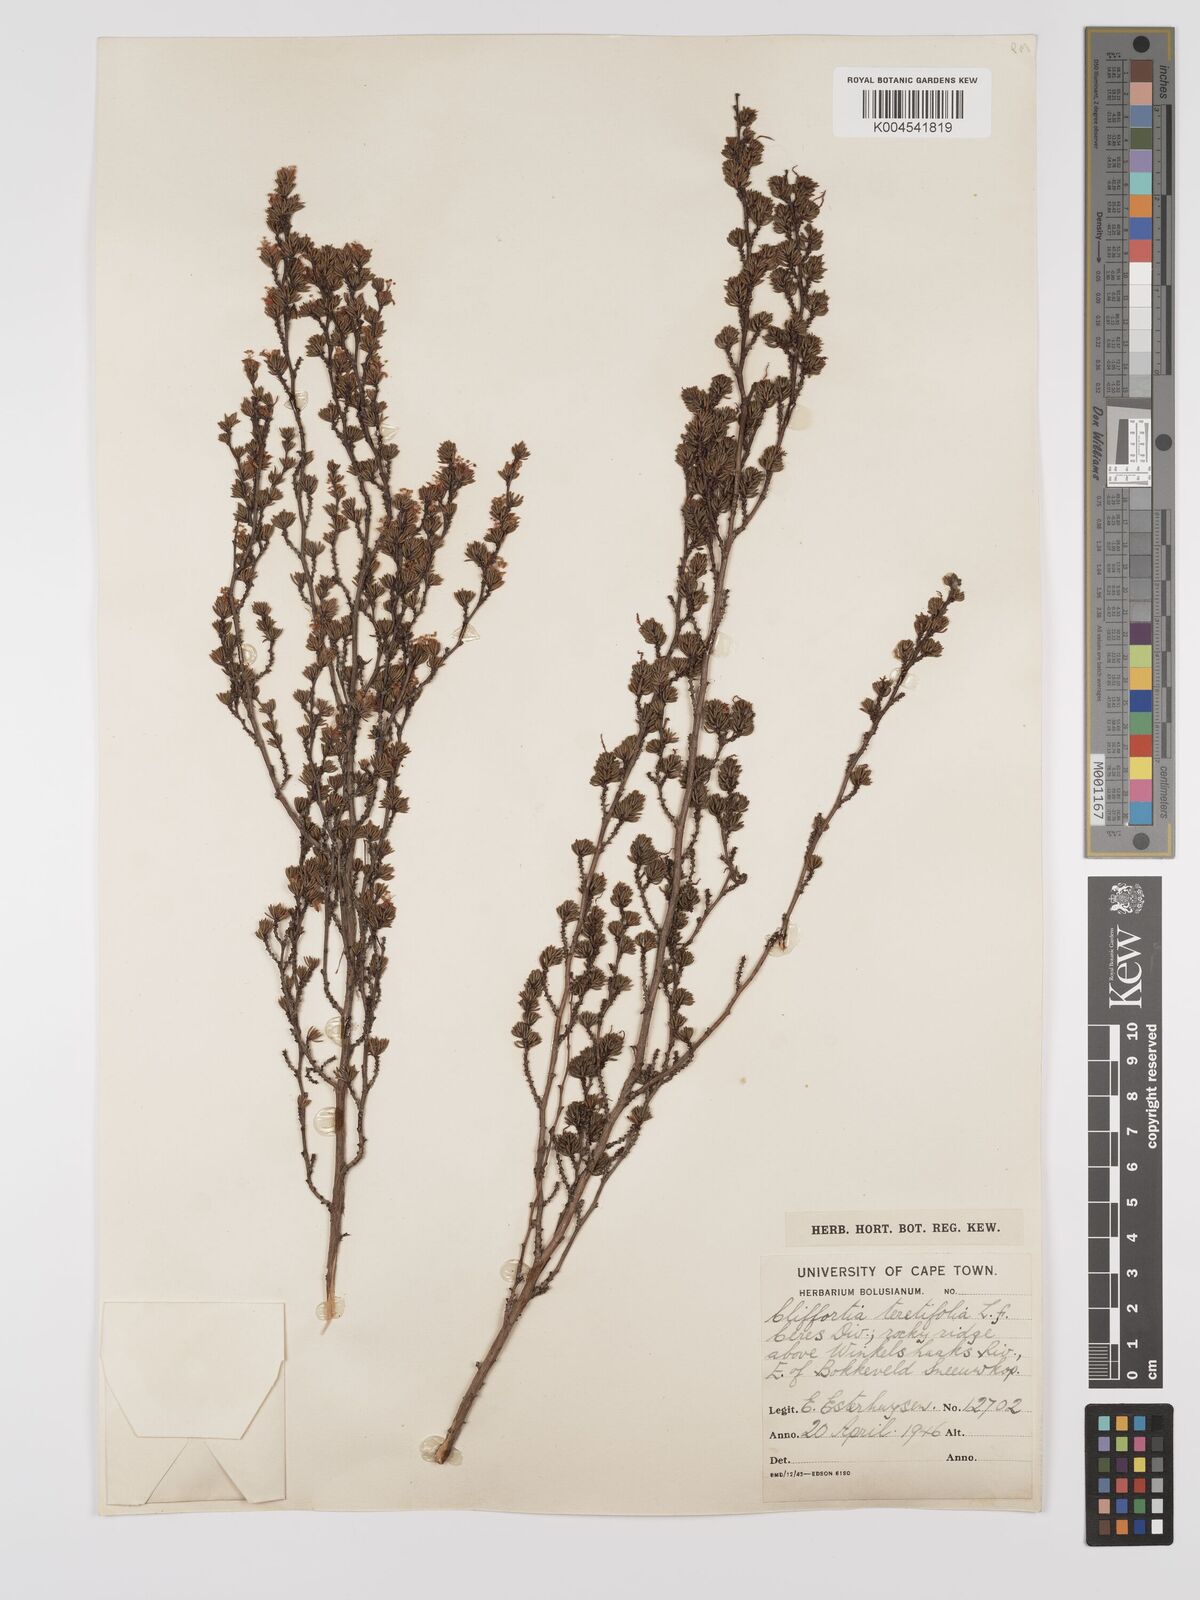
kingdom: Plantae
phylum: Tracheophyta
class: Magnoliopsida
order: Rosales
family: Rosaceae
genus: Cliffortia
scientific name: Cliffortia teretifolia
